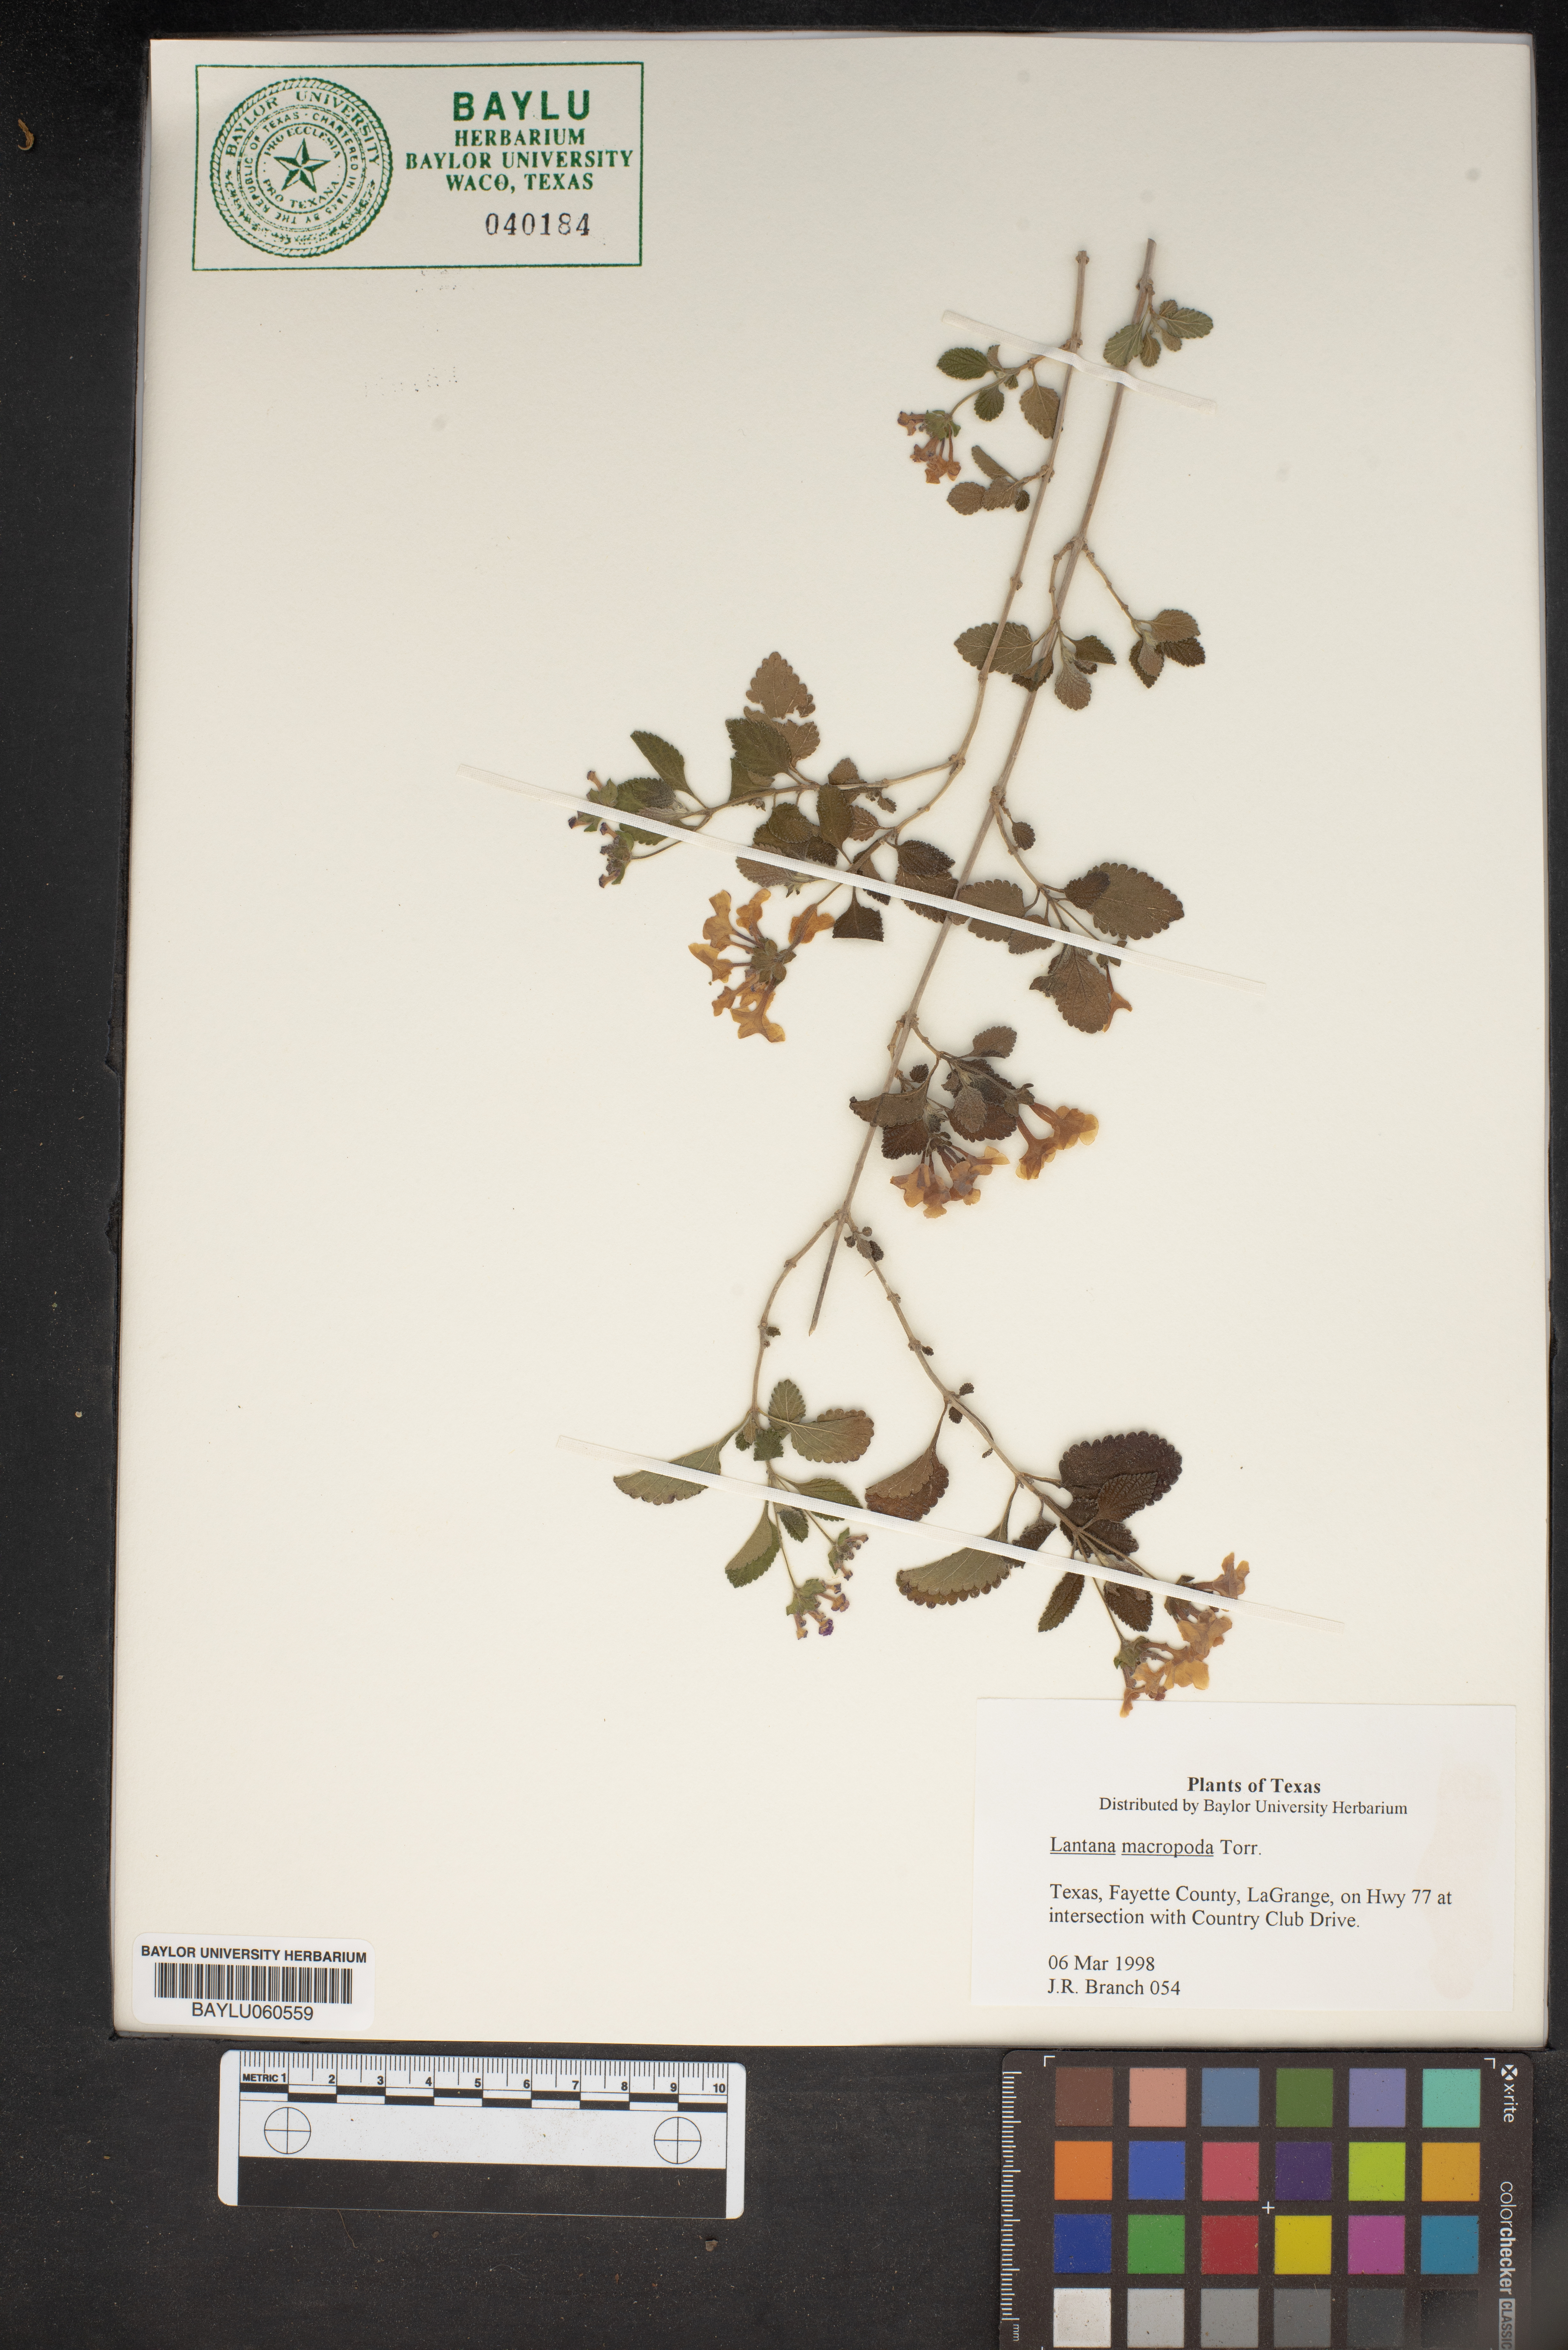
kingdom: Plantae
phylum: Tracheophyta
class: Magnoliopsida
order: Lamiales
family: Verbenaceae
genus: Lantana
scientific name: Lantana achyranthifolia
